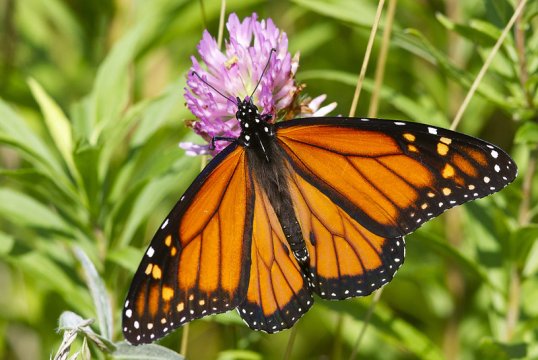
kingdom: Animalia
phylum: Arthropoda
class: Insecta
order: Lepidoptera
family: Nymphalidae
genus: Danaus
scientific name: Danaus plexippus
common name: Monarch
